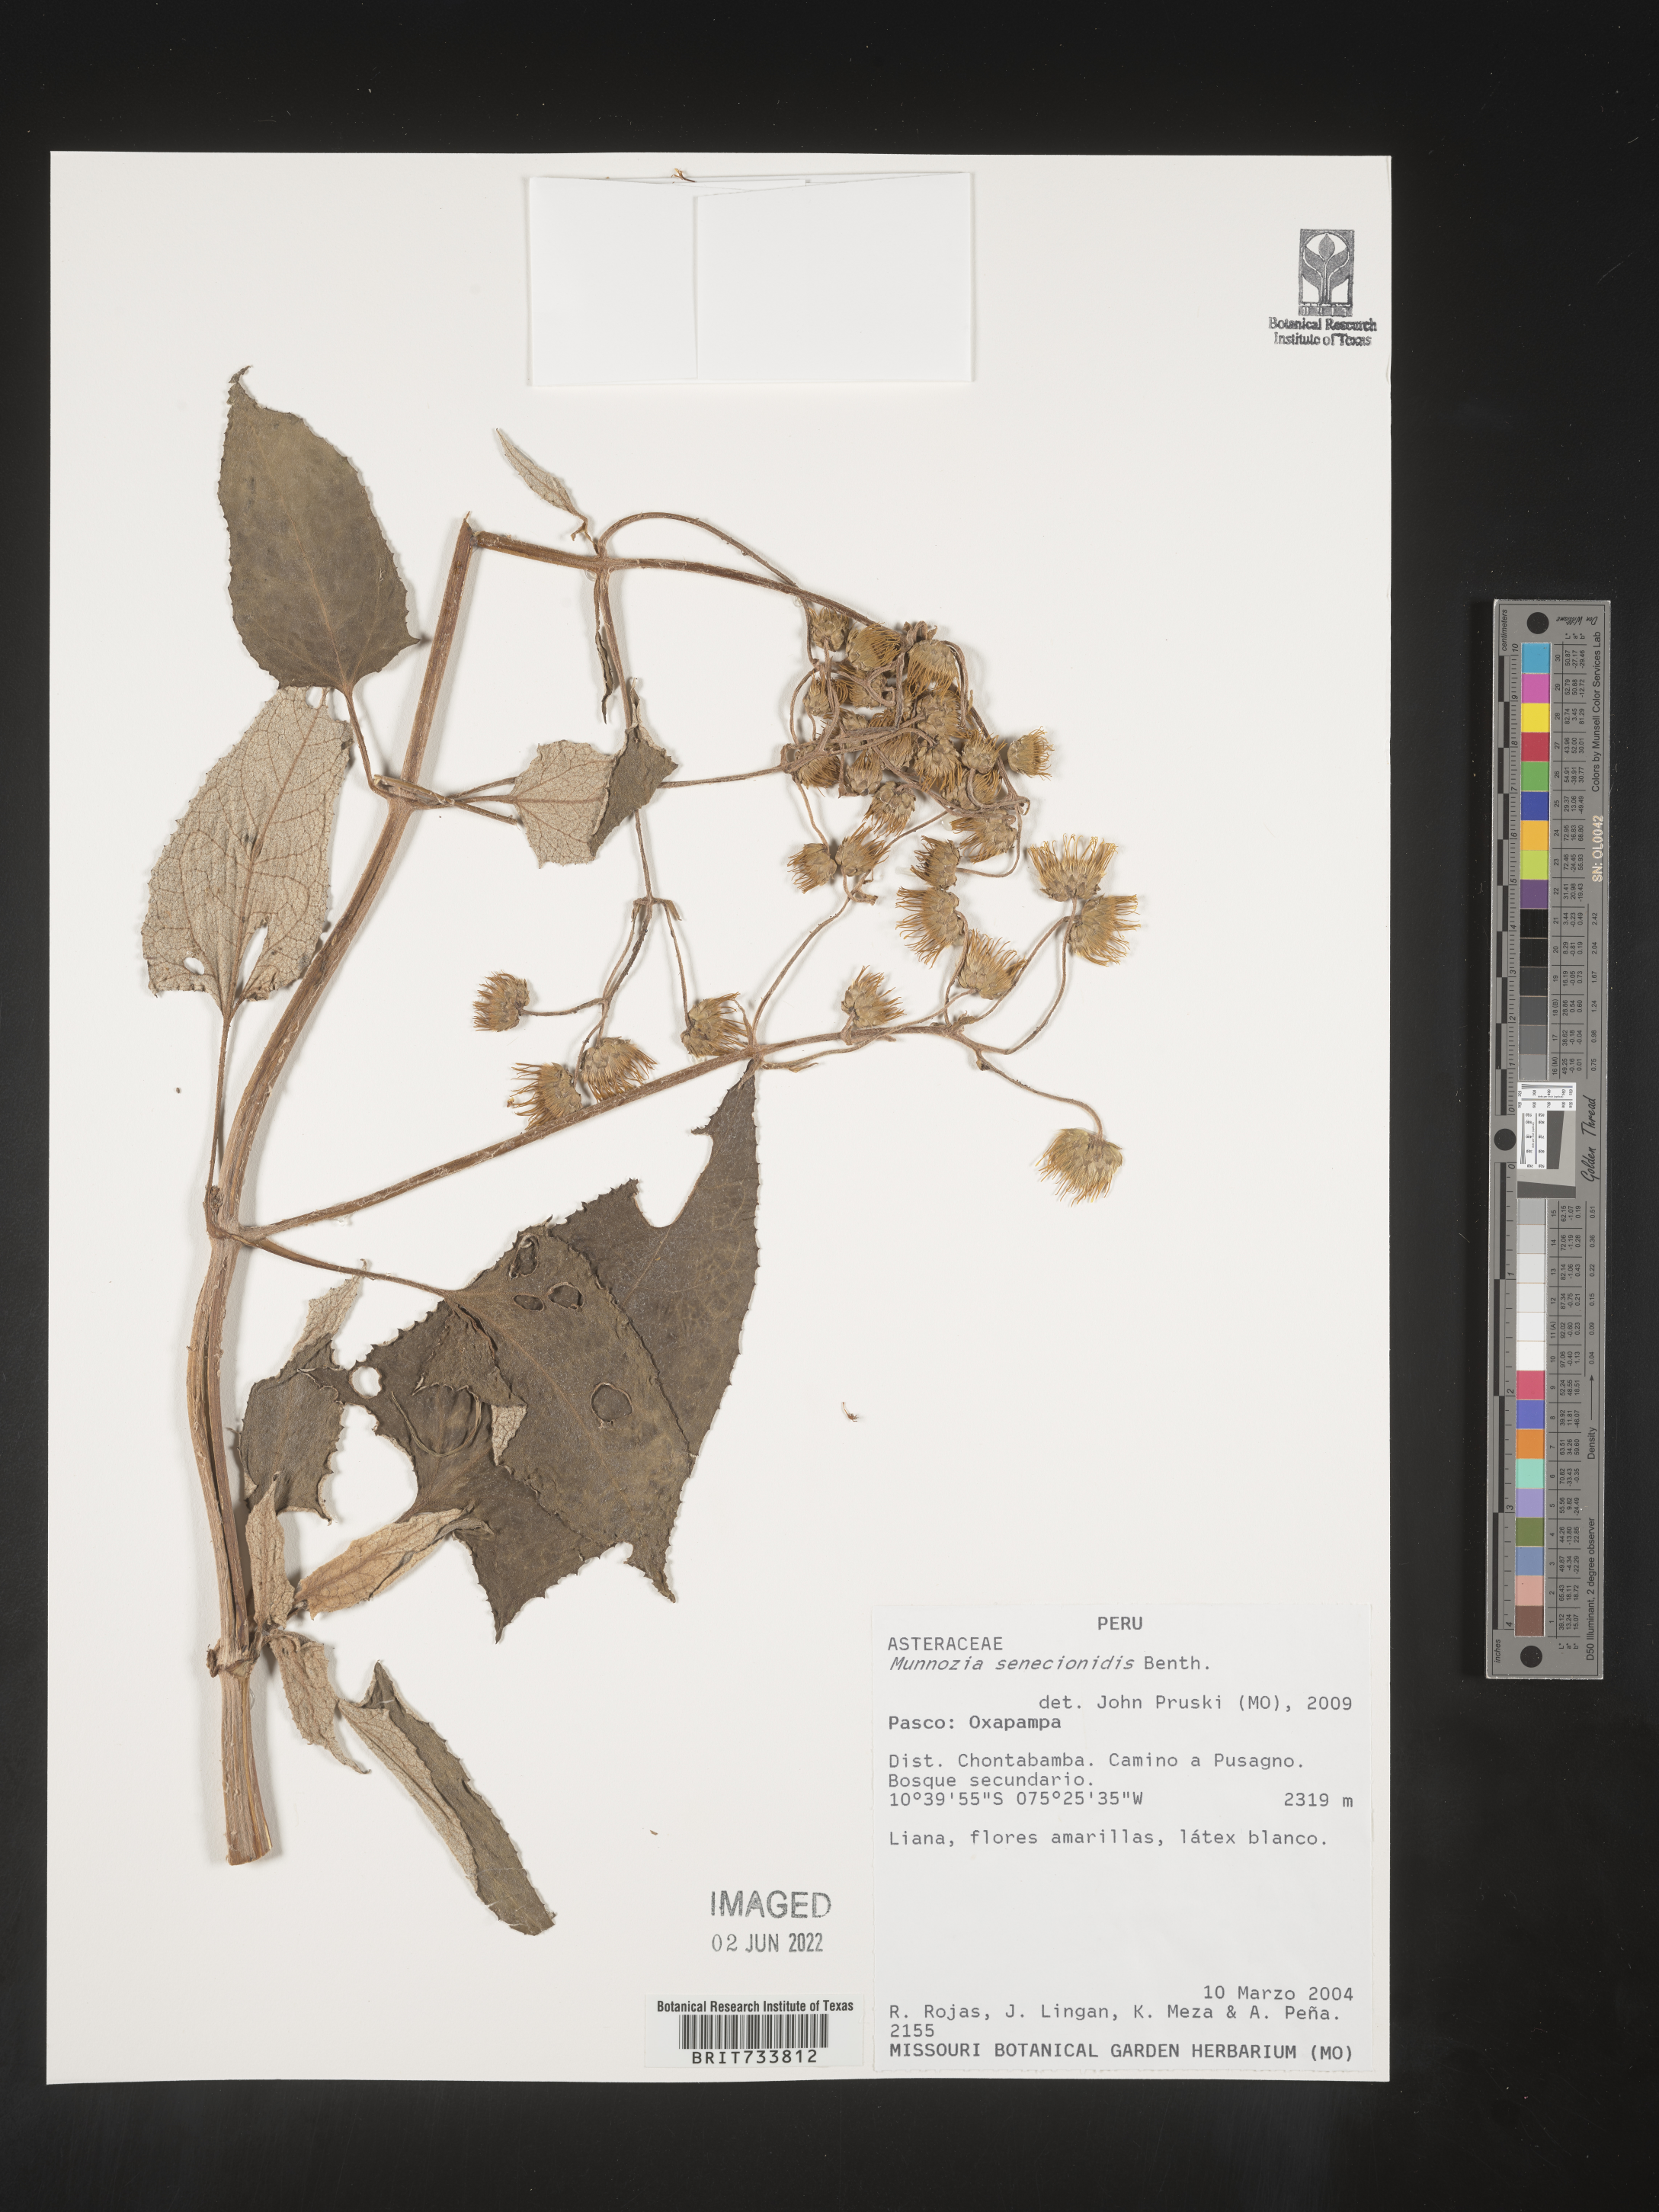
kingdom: Plantae
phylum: Tracheophyta
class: Magnoliopsida
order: Asterales
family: Asteraceae
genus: Munnozia
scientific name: Munnozia
